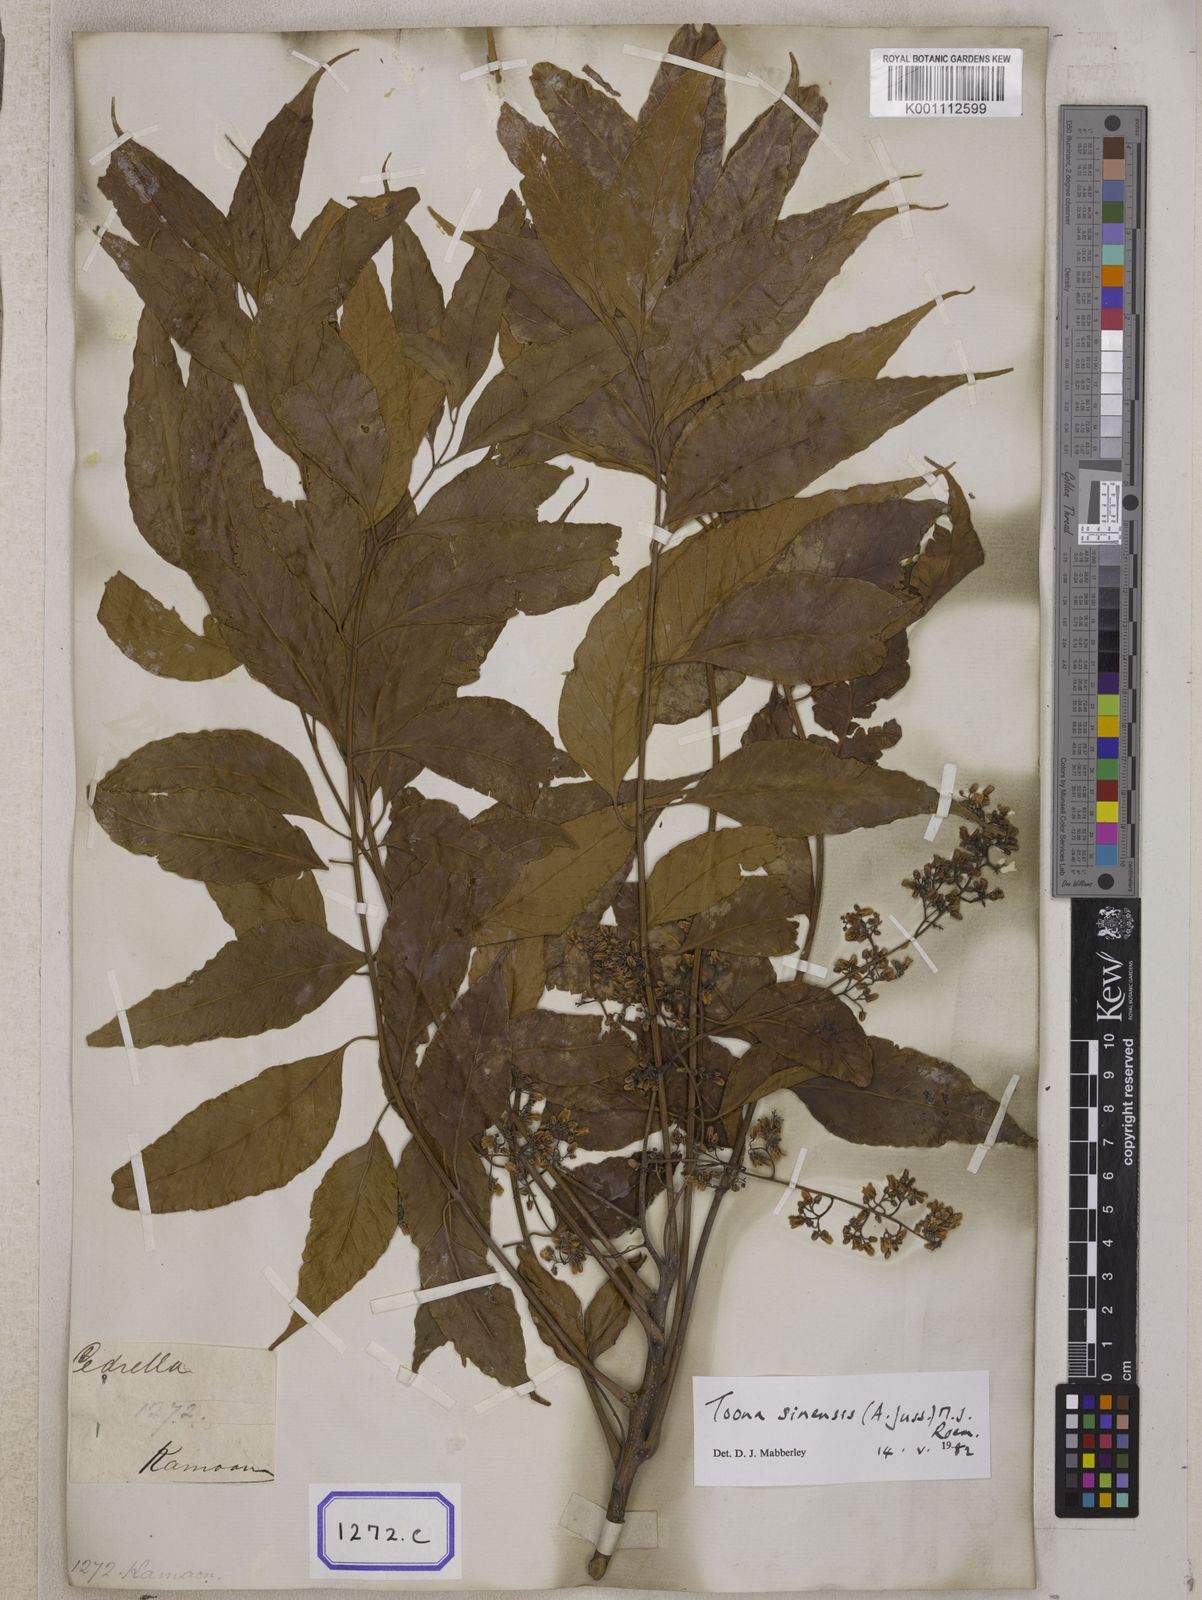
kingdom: Plantae
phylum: Tracheophyta
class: Magnoliopsida
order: Sapindales
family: Meliaceae
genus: Cedrela
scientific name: Cedrela
